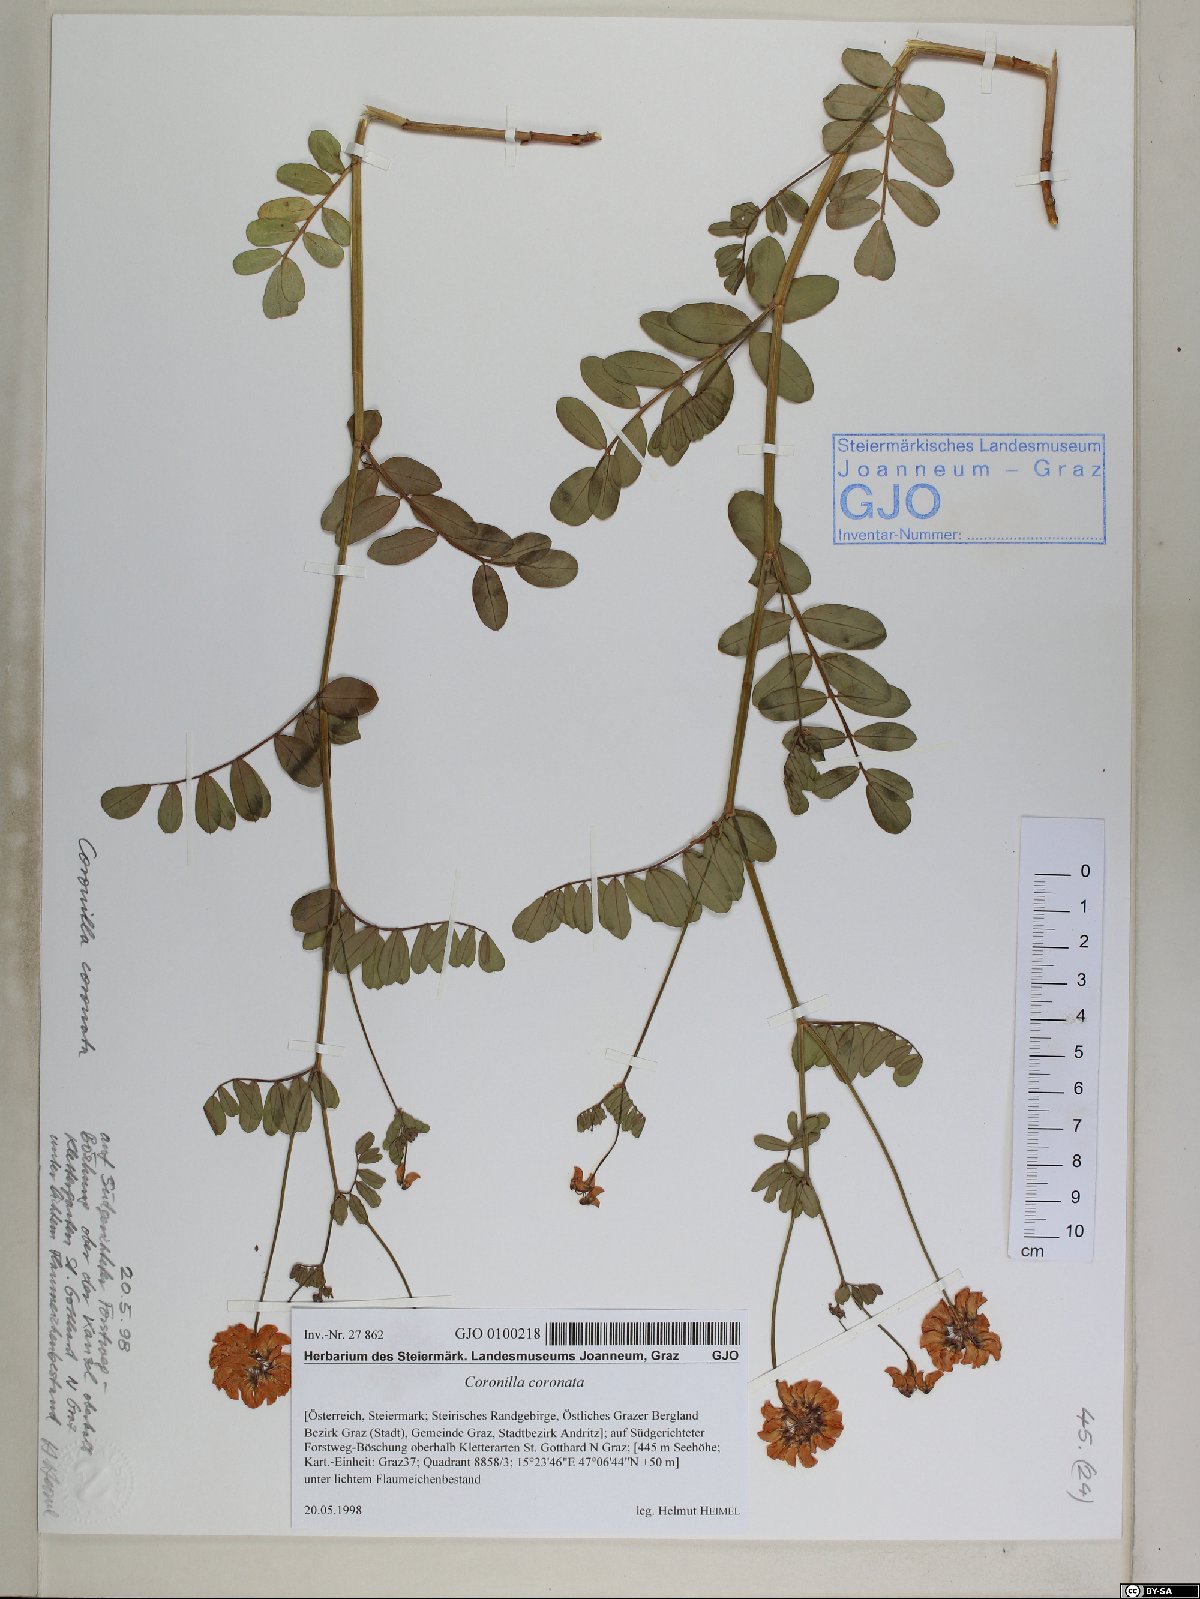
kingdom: Plantae
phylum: Tracheophyta
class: Magnoliopsida
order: Fabales
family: Fabaceae
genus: Coronilla
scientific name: Coronilla coronata
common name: Scorpion-vetch
